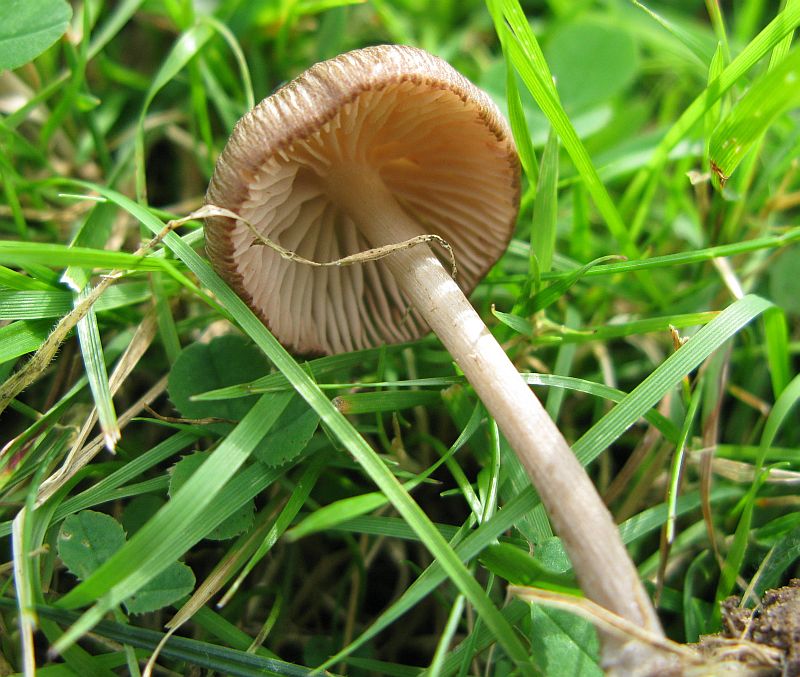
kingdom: Fungi
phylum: Basidiomycota
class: Agaricomycetes
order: Agaricales
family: Entolomataceae
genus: Entoloma
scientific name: Entoloma griseocyaneum
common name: gråblå rødblad
